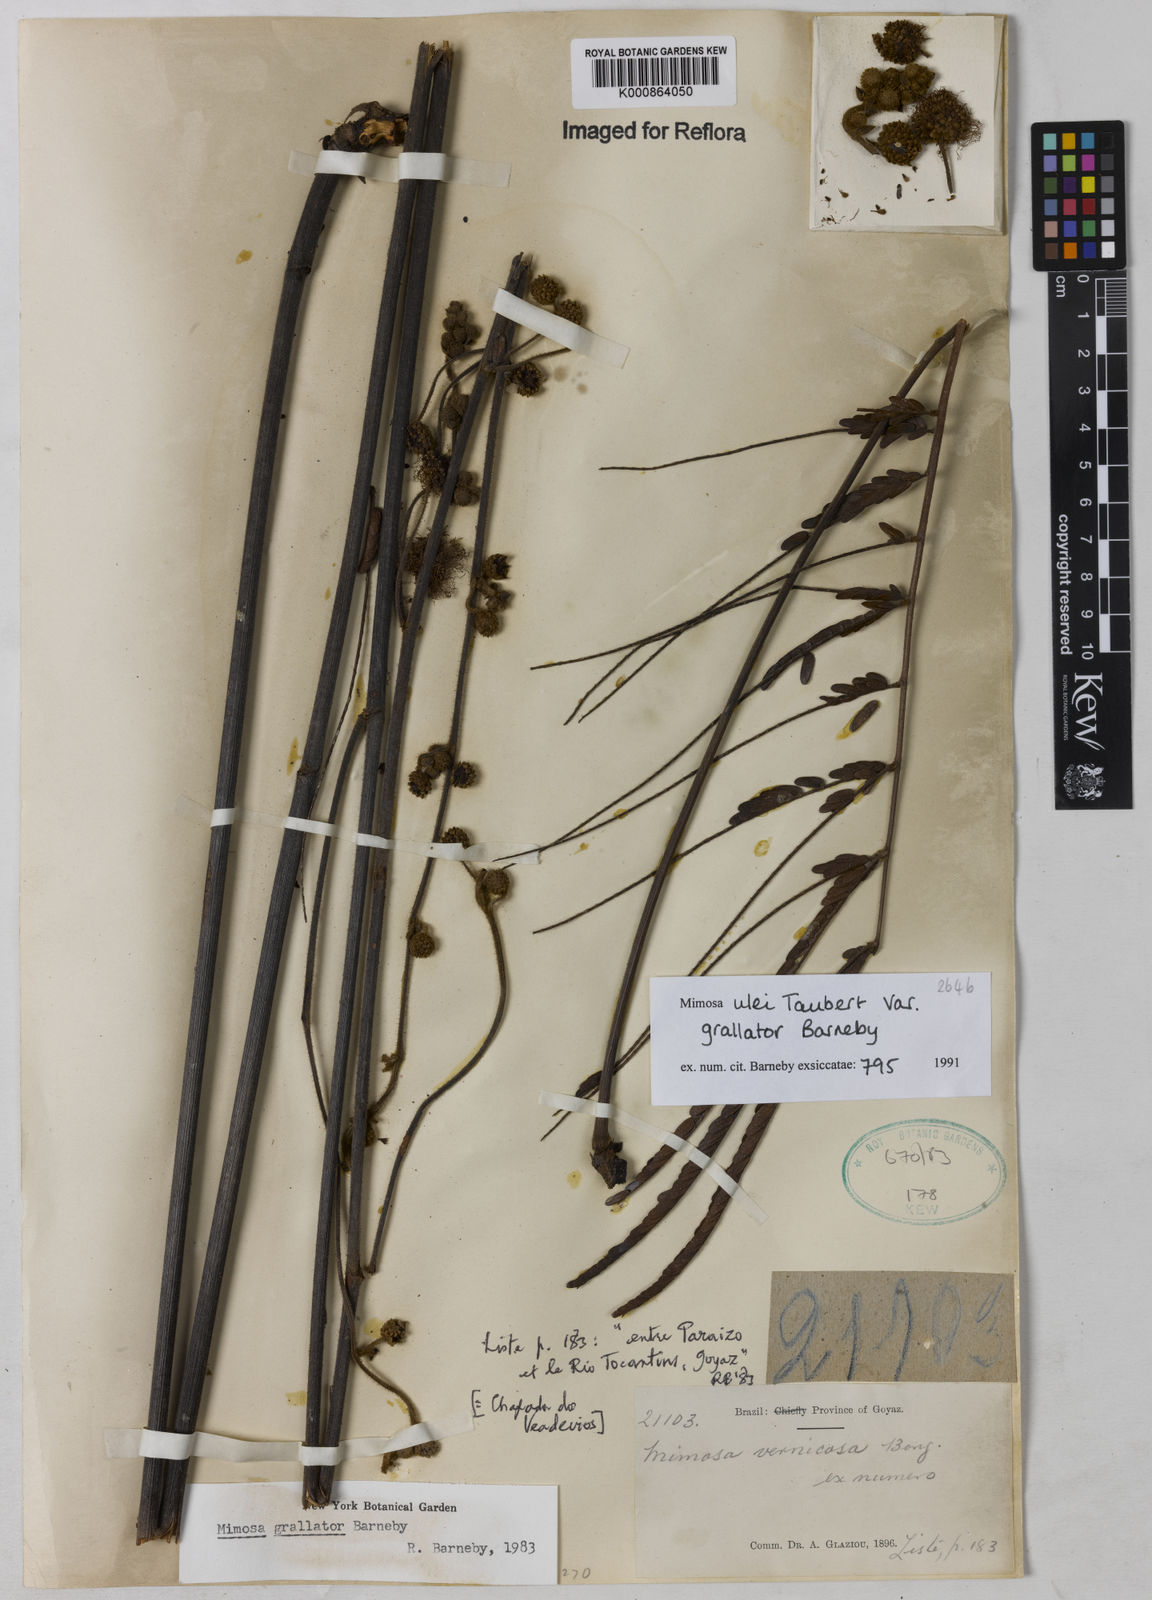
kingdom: Plantae
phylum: Tracheophyta
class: Magnoliopsida
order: Fabales
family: Fabaceae
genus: Mimosa
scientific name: Mimosa ulei
